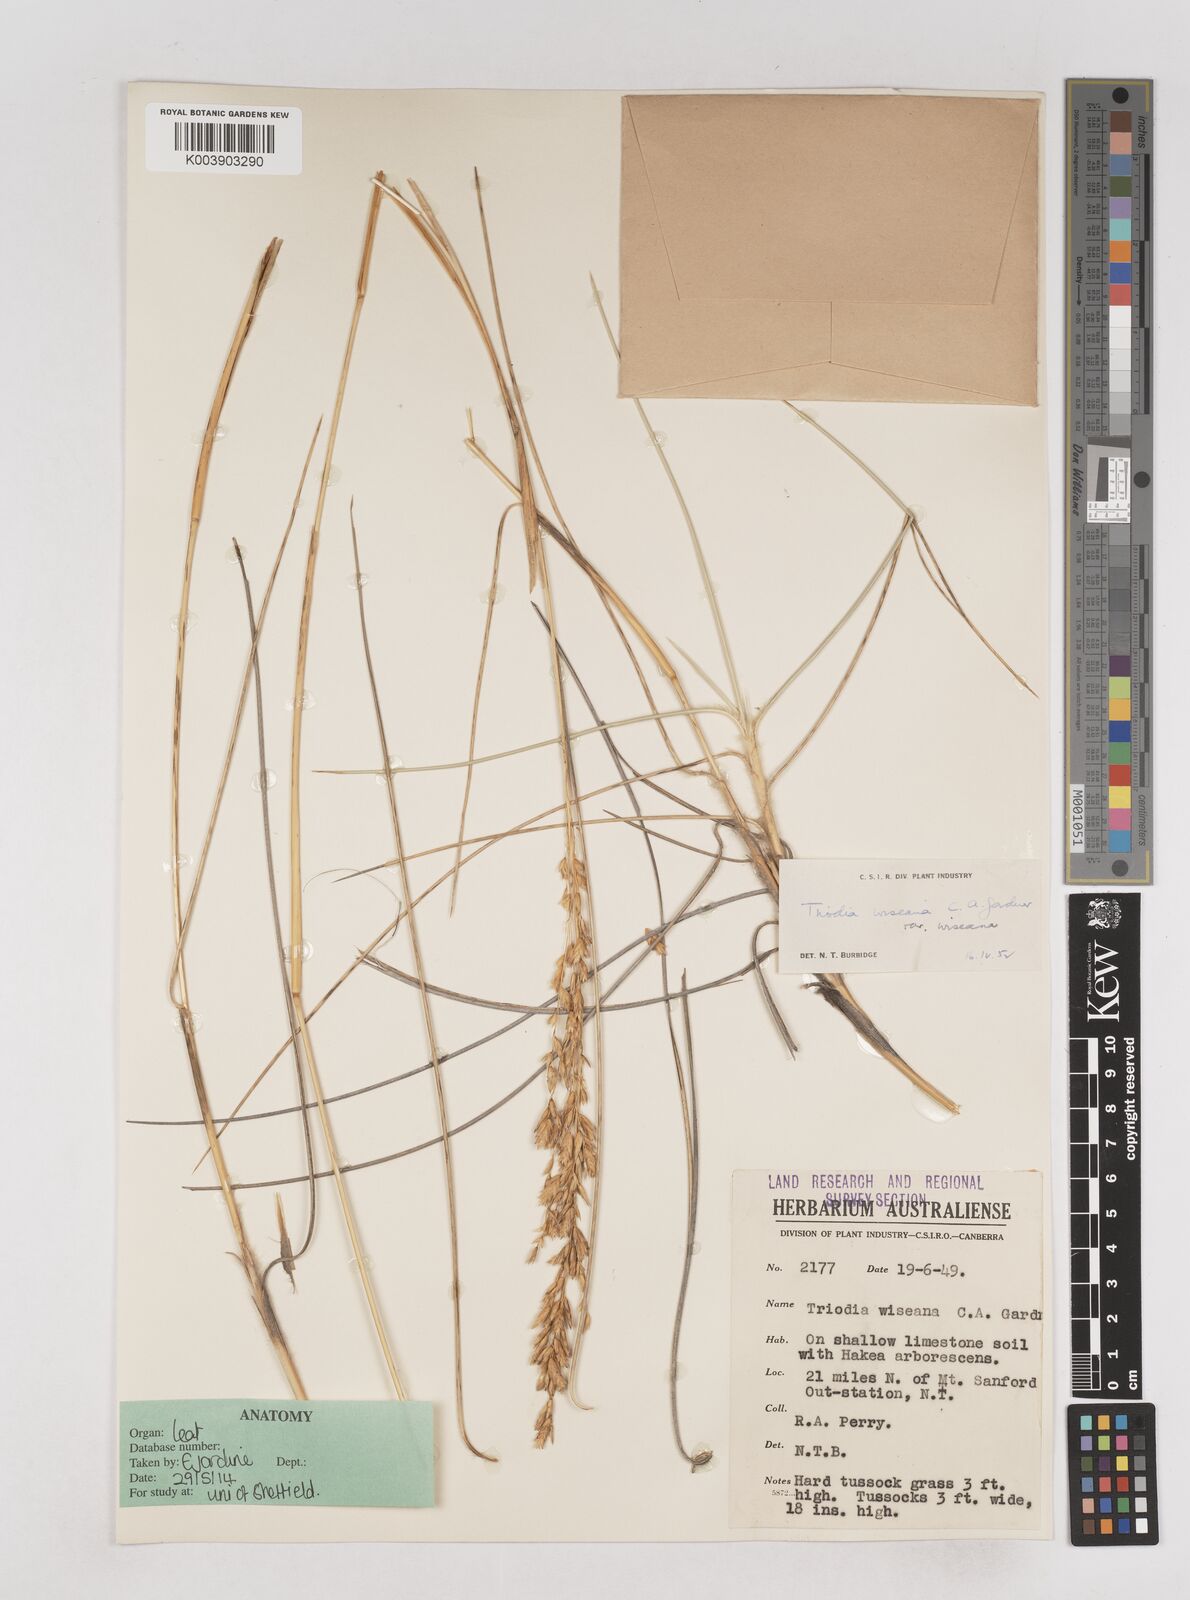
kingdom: Plantae
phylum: Tracheophyta
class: Liliopsida
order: Poales
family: Poaceae
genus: Triodia
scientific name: Triodia wiseana
